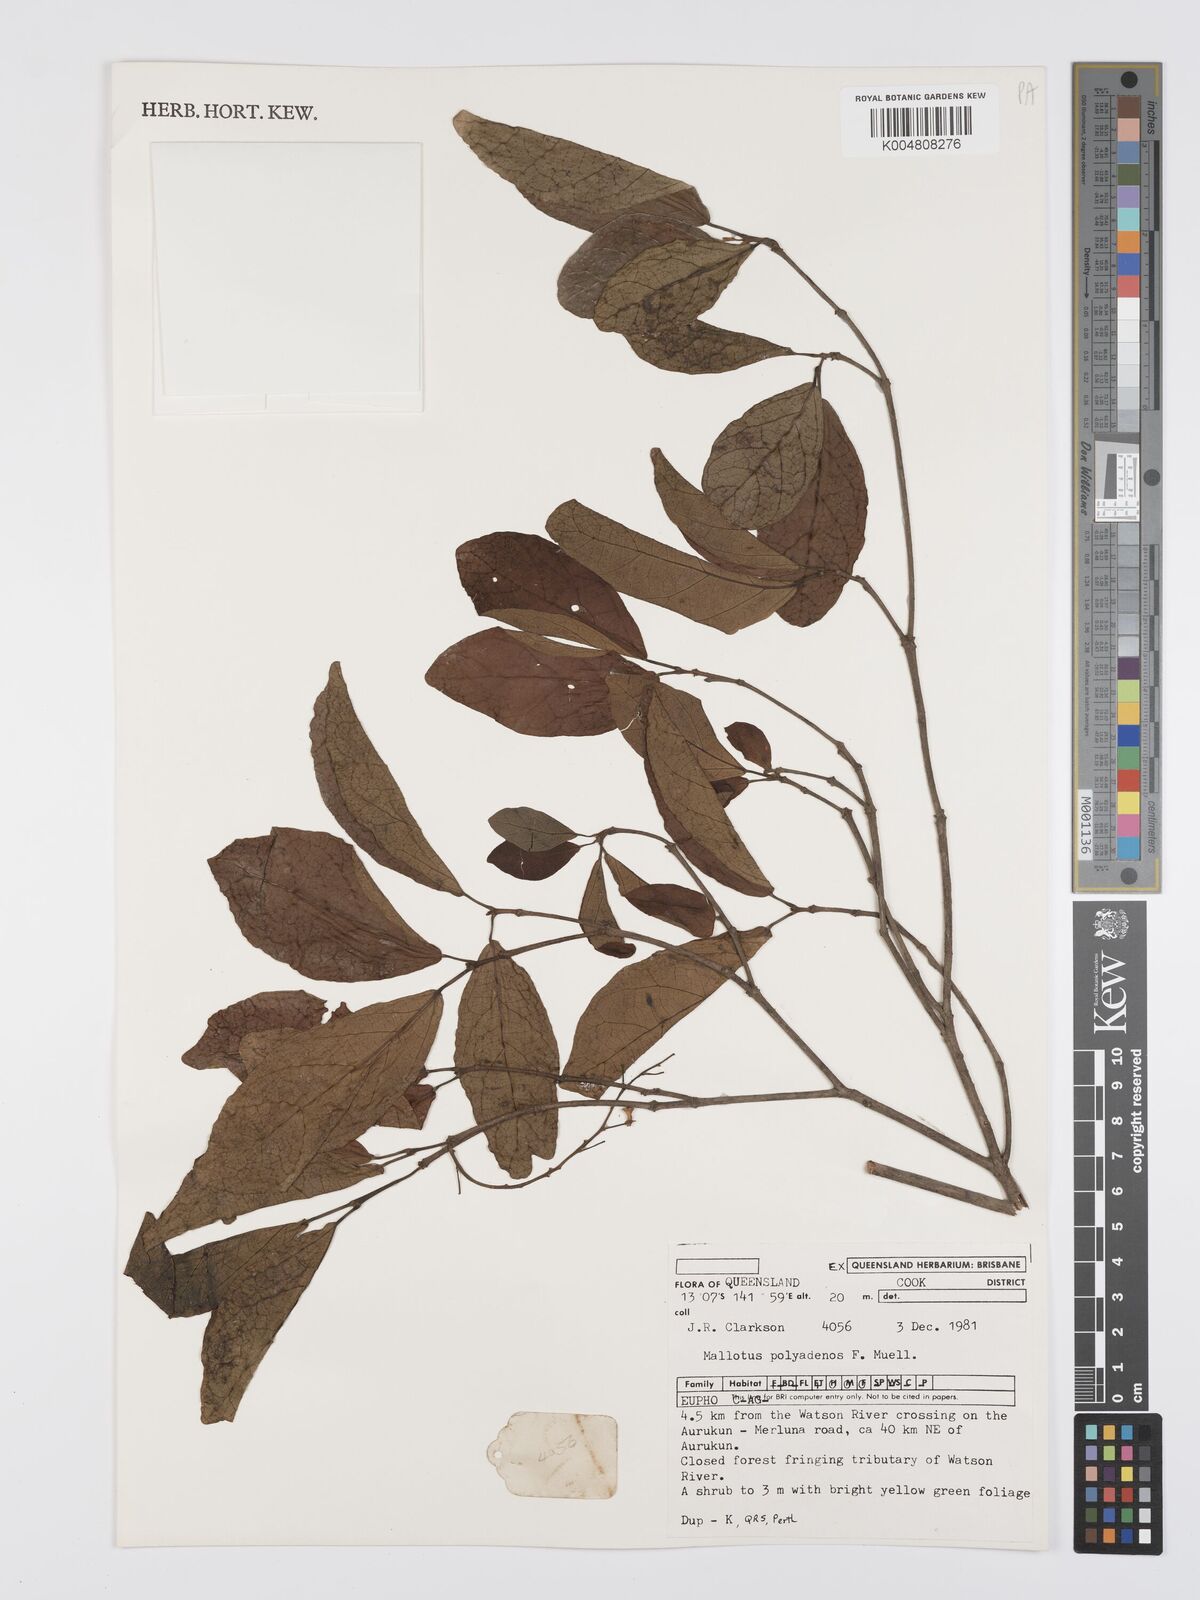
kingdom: Plantae
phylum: Tracheophyta
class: Magnoliopsida
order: Malpighiales
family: Euphorbiaceae
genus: Mallotus
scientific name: Mallotus polyadenos
